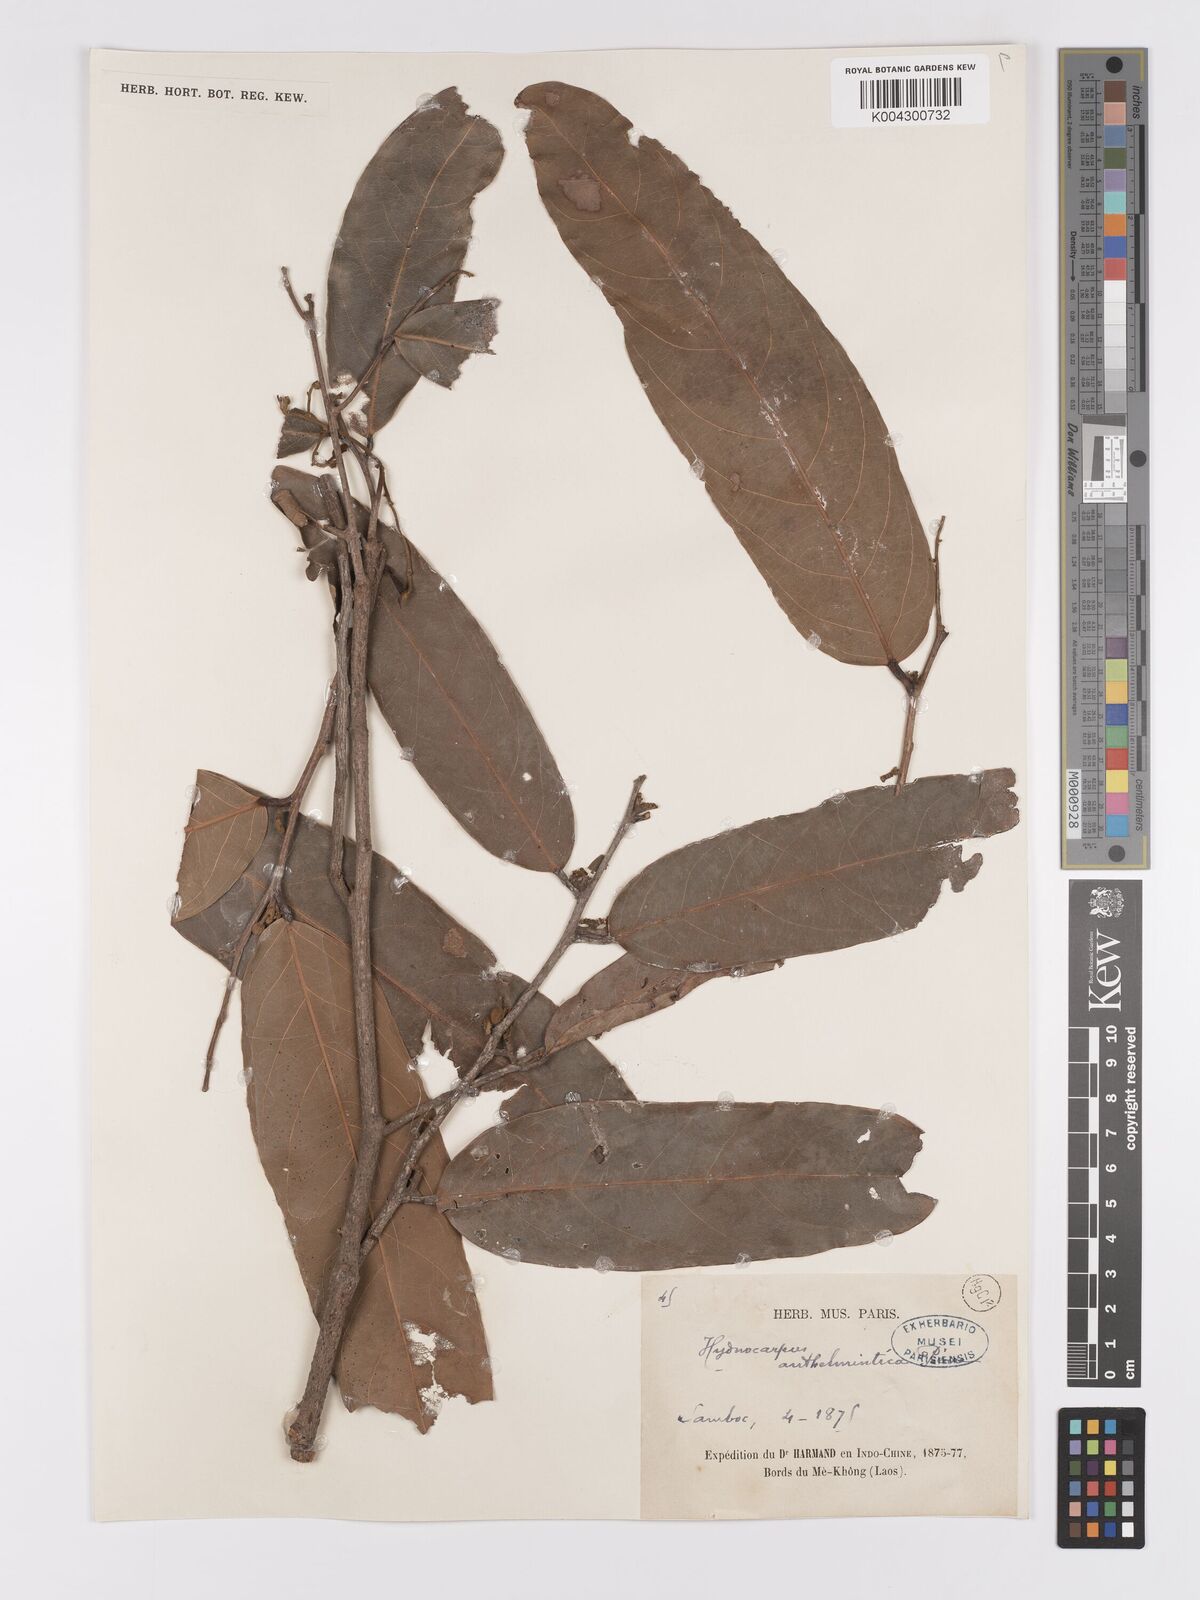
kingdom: Plantae
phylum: Tracheophyta
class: Magnoliopsida
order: Malpighiales
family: Achariaceae
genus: Hydnocarpus
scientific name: Hydnocarpus
